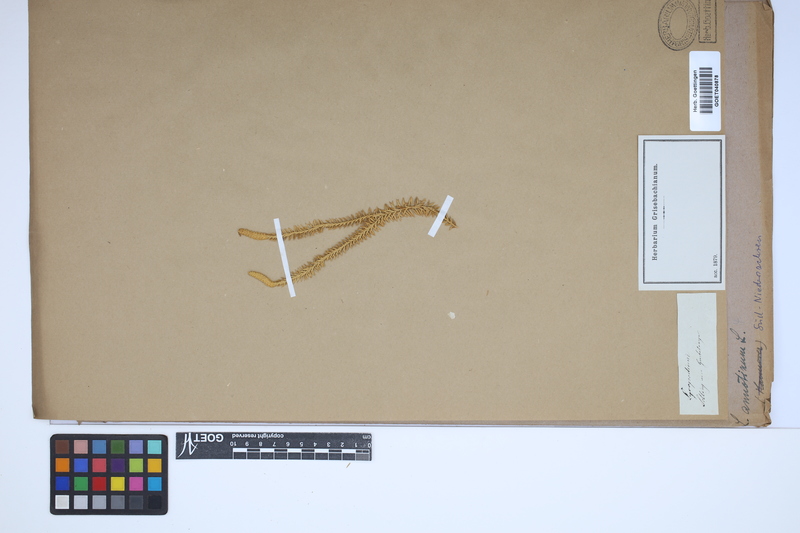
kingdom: Plantae
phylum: Tracheophyta
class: Lycopodiopsida
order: Lycopodiales
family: Lycopodiaceae
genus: Spinulum
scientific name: Spinulum annotinum
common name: Interrupted club-moss
